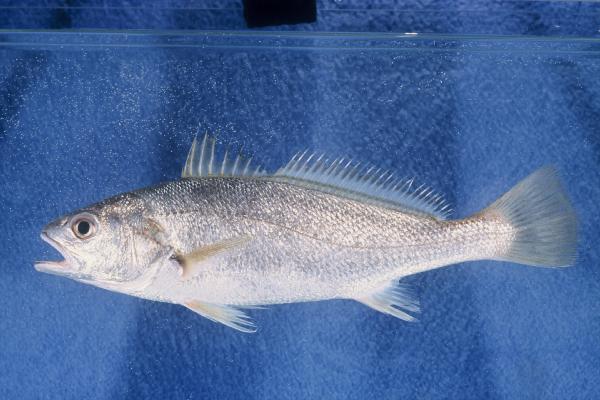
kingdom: Animalia
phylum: Chordata
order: Perciformes
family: Sciaenidae
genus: Argyrosomus
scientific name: Argyrosomus thorpei
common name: Squaretail kob
